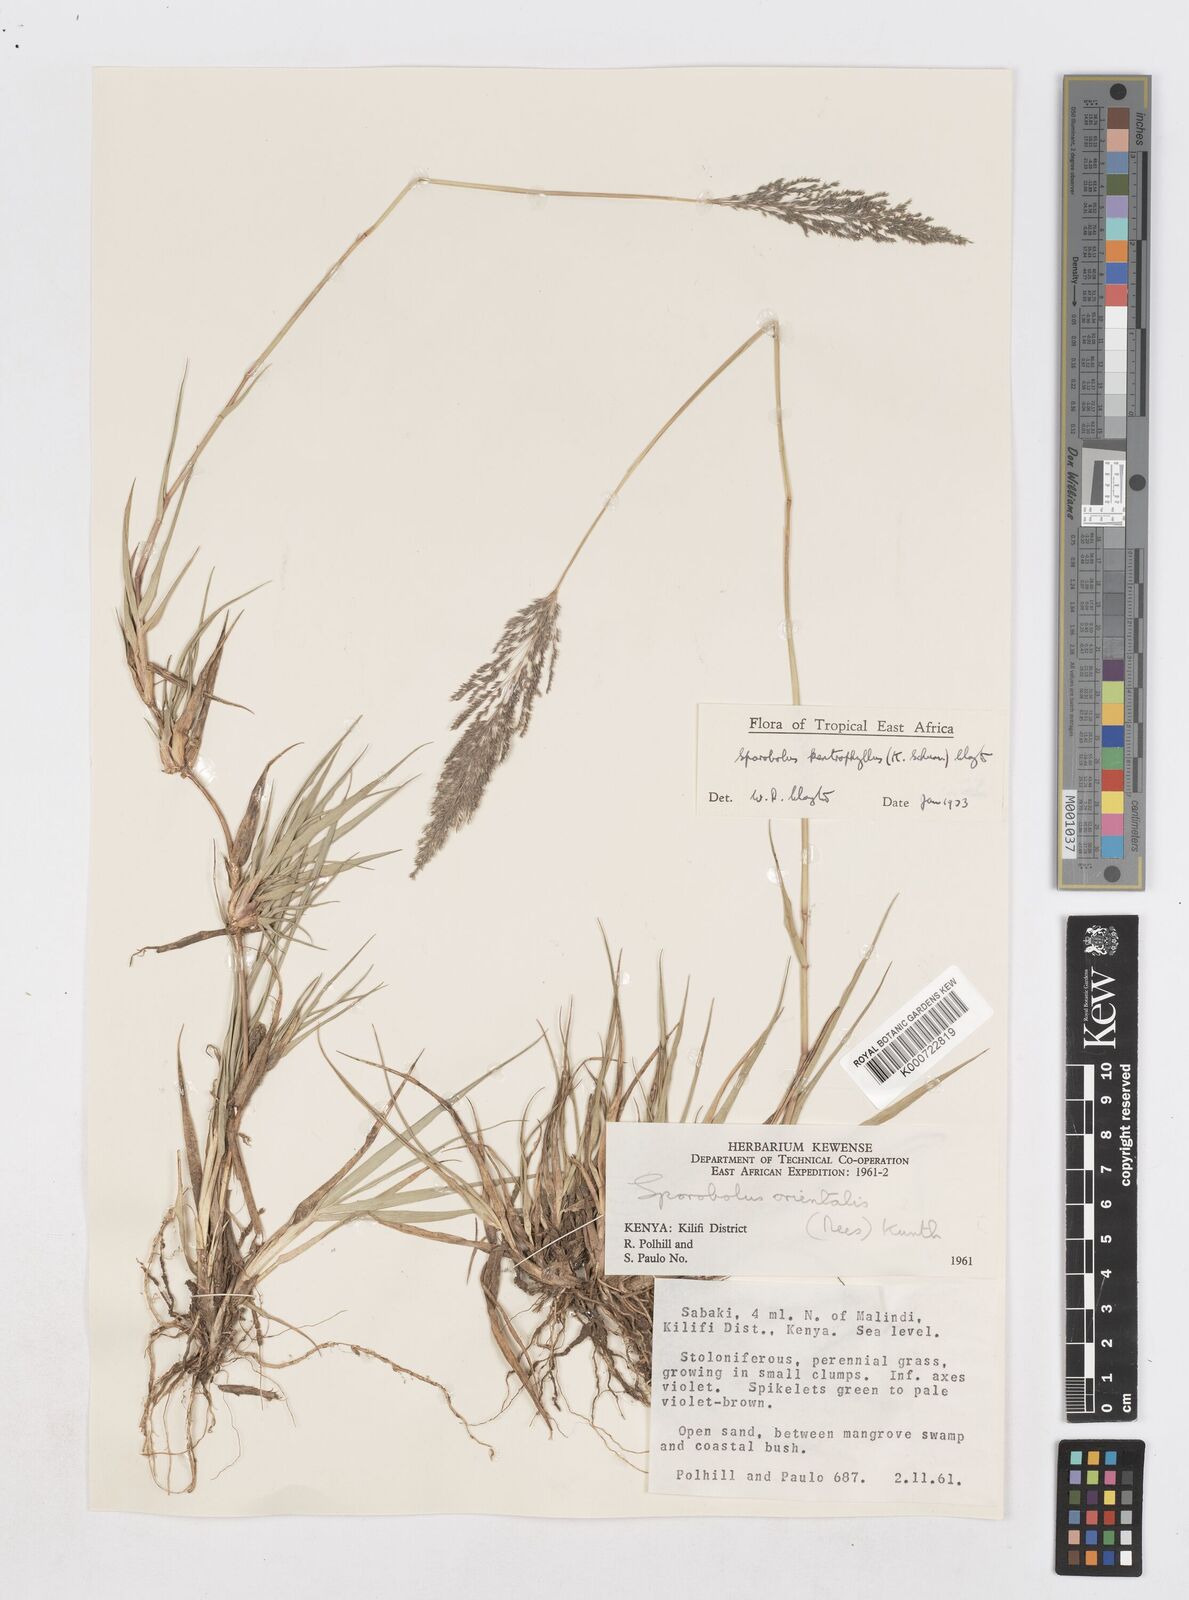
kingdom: Plantae
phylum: Tracheophyta
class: Liliopsida
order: Poales
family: Poaceae
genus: Sporobolus
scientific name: Sporobolus ioclados
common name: Pan dropseed
